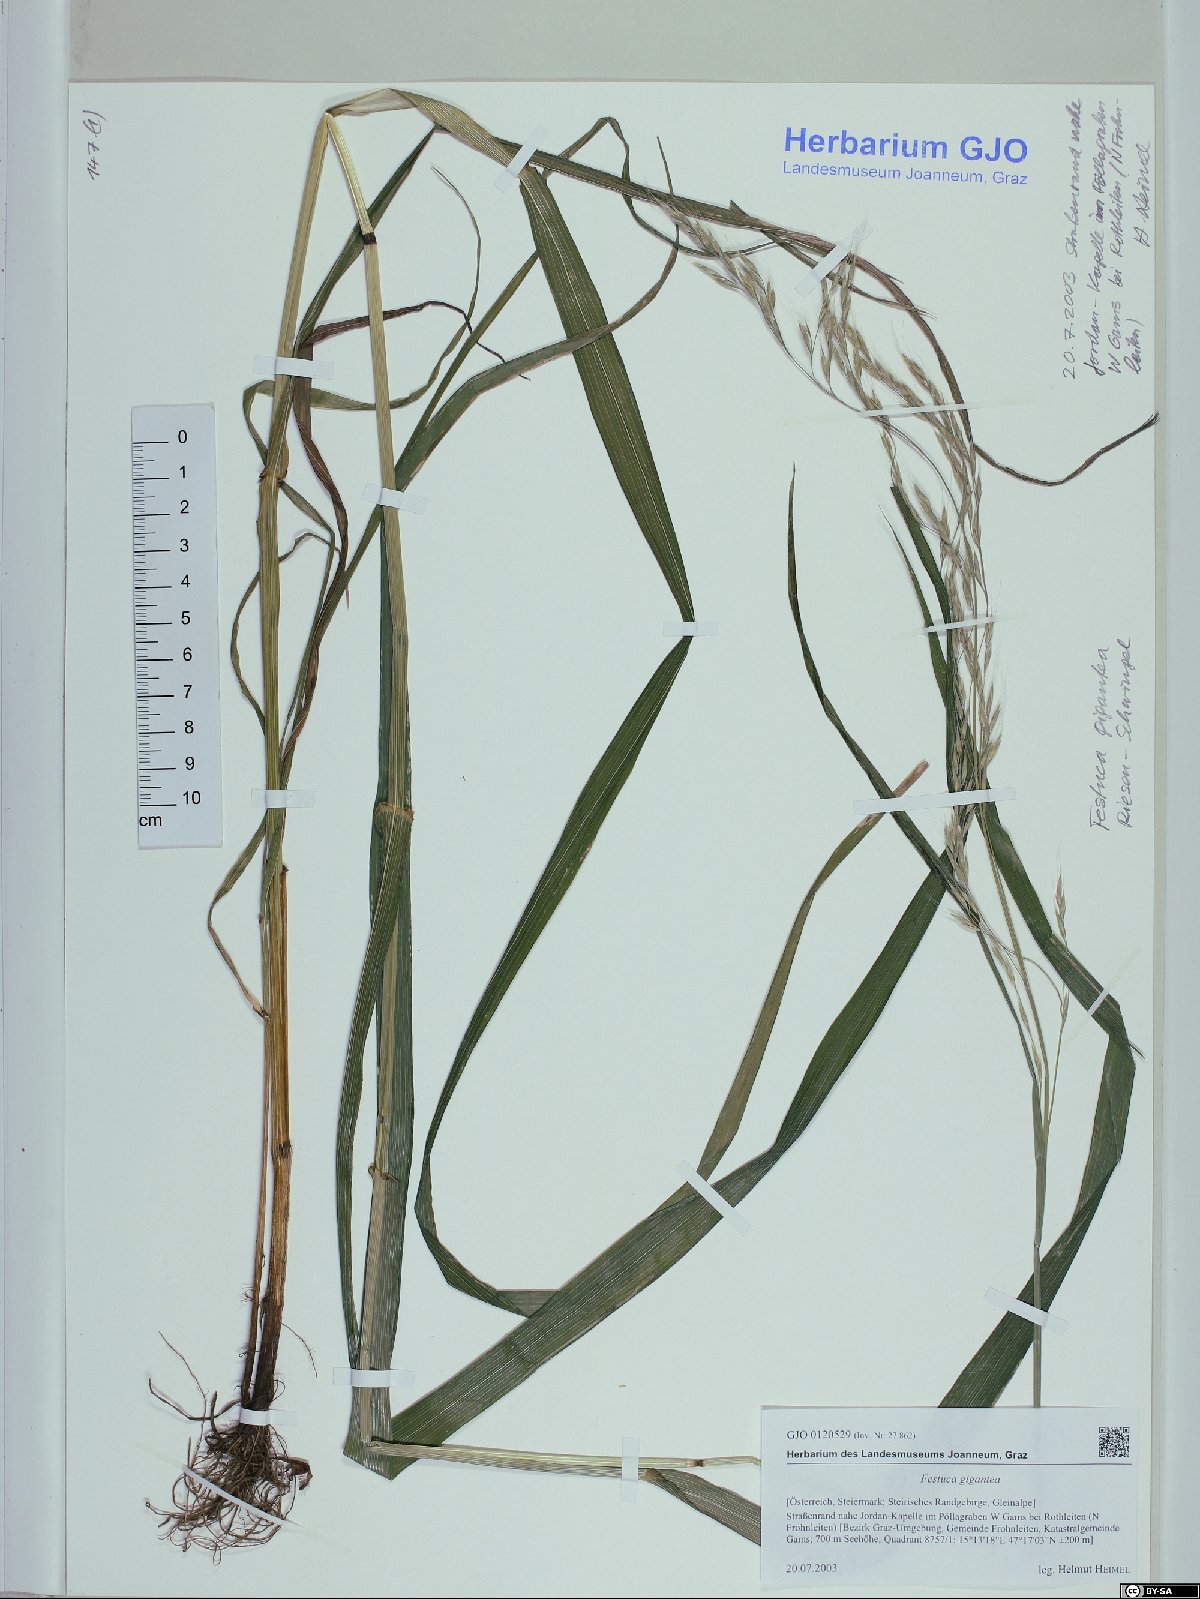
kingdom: Plantae
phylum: Tracheophyta
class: Liliopsida
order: Poales
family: Poaceae
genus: Lolium
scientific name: Lolium giganteum
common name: Giant fescue
